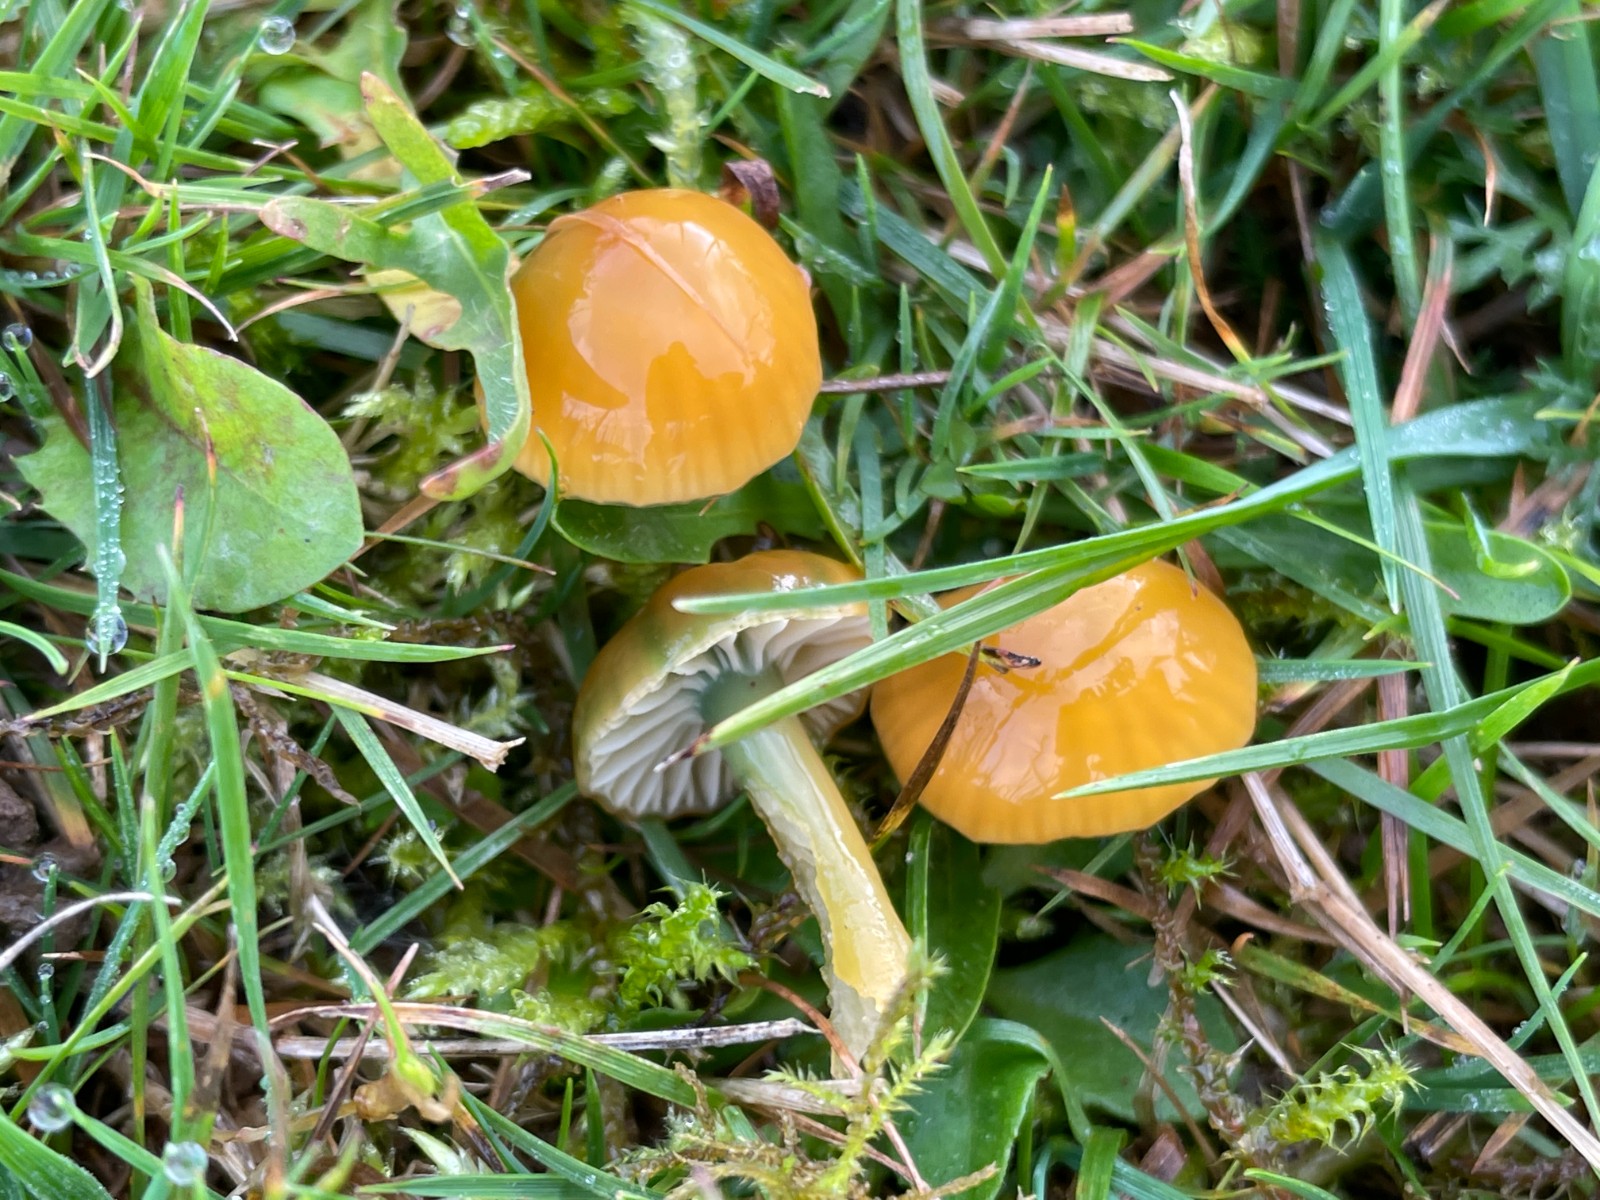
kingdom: Fungi
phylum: Basidiomycota
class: Agaricomycetes
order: Agaricales
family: Hygrophoraceae
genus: Gliophorus
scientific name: Gliophorus psittacinus
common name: papegøje-vokshat
